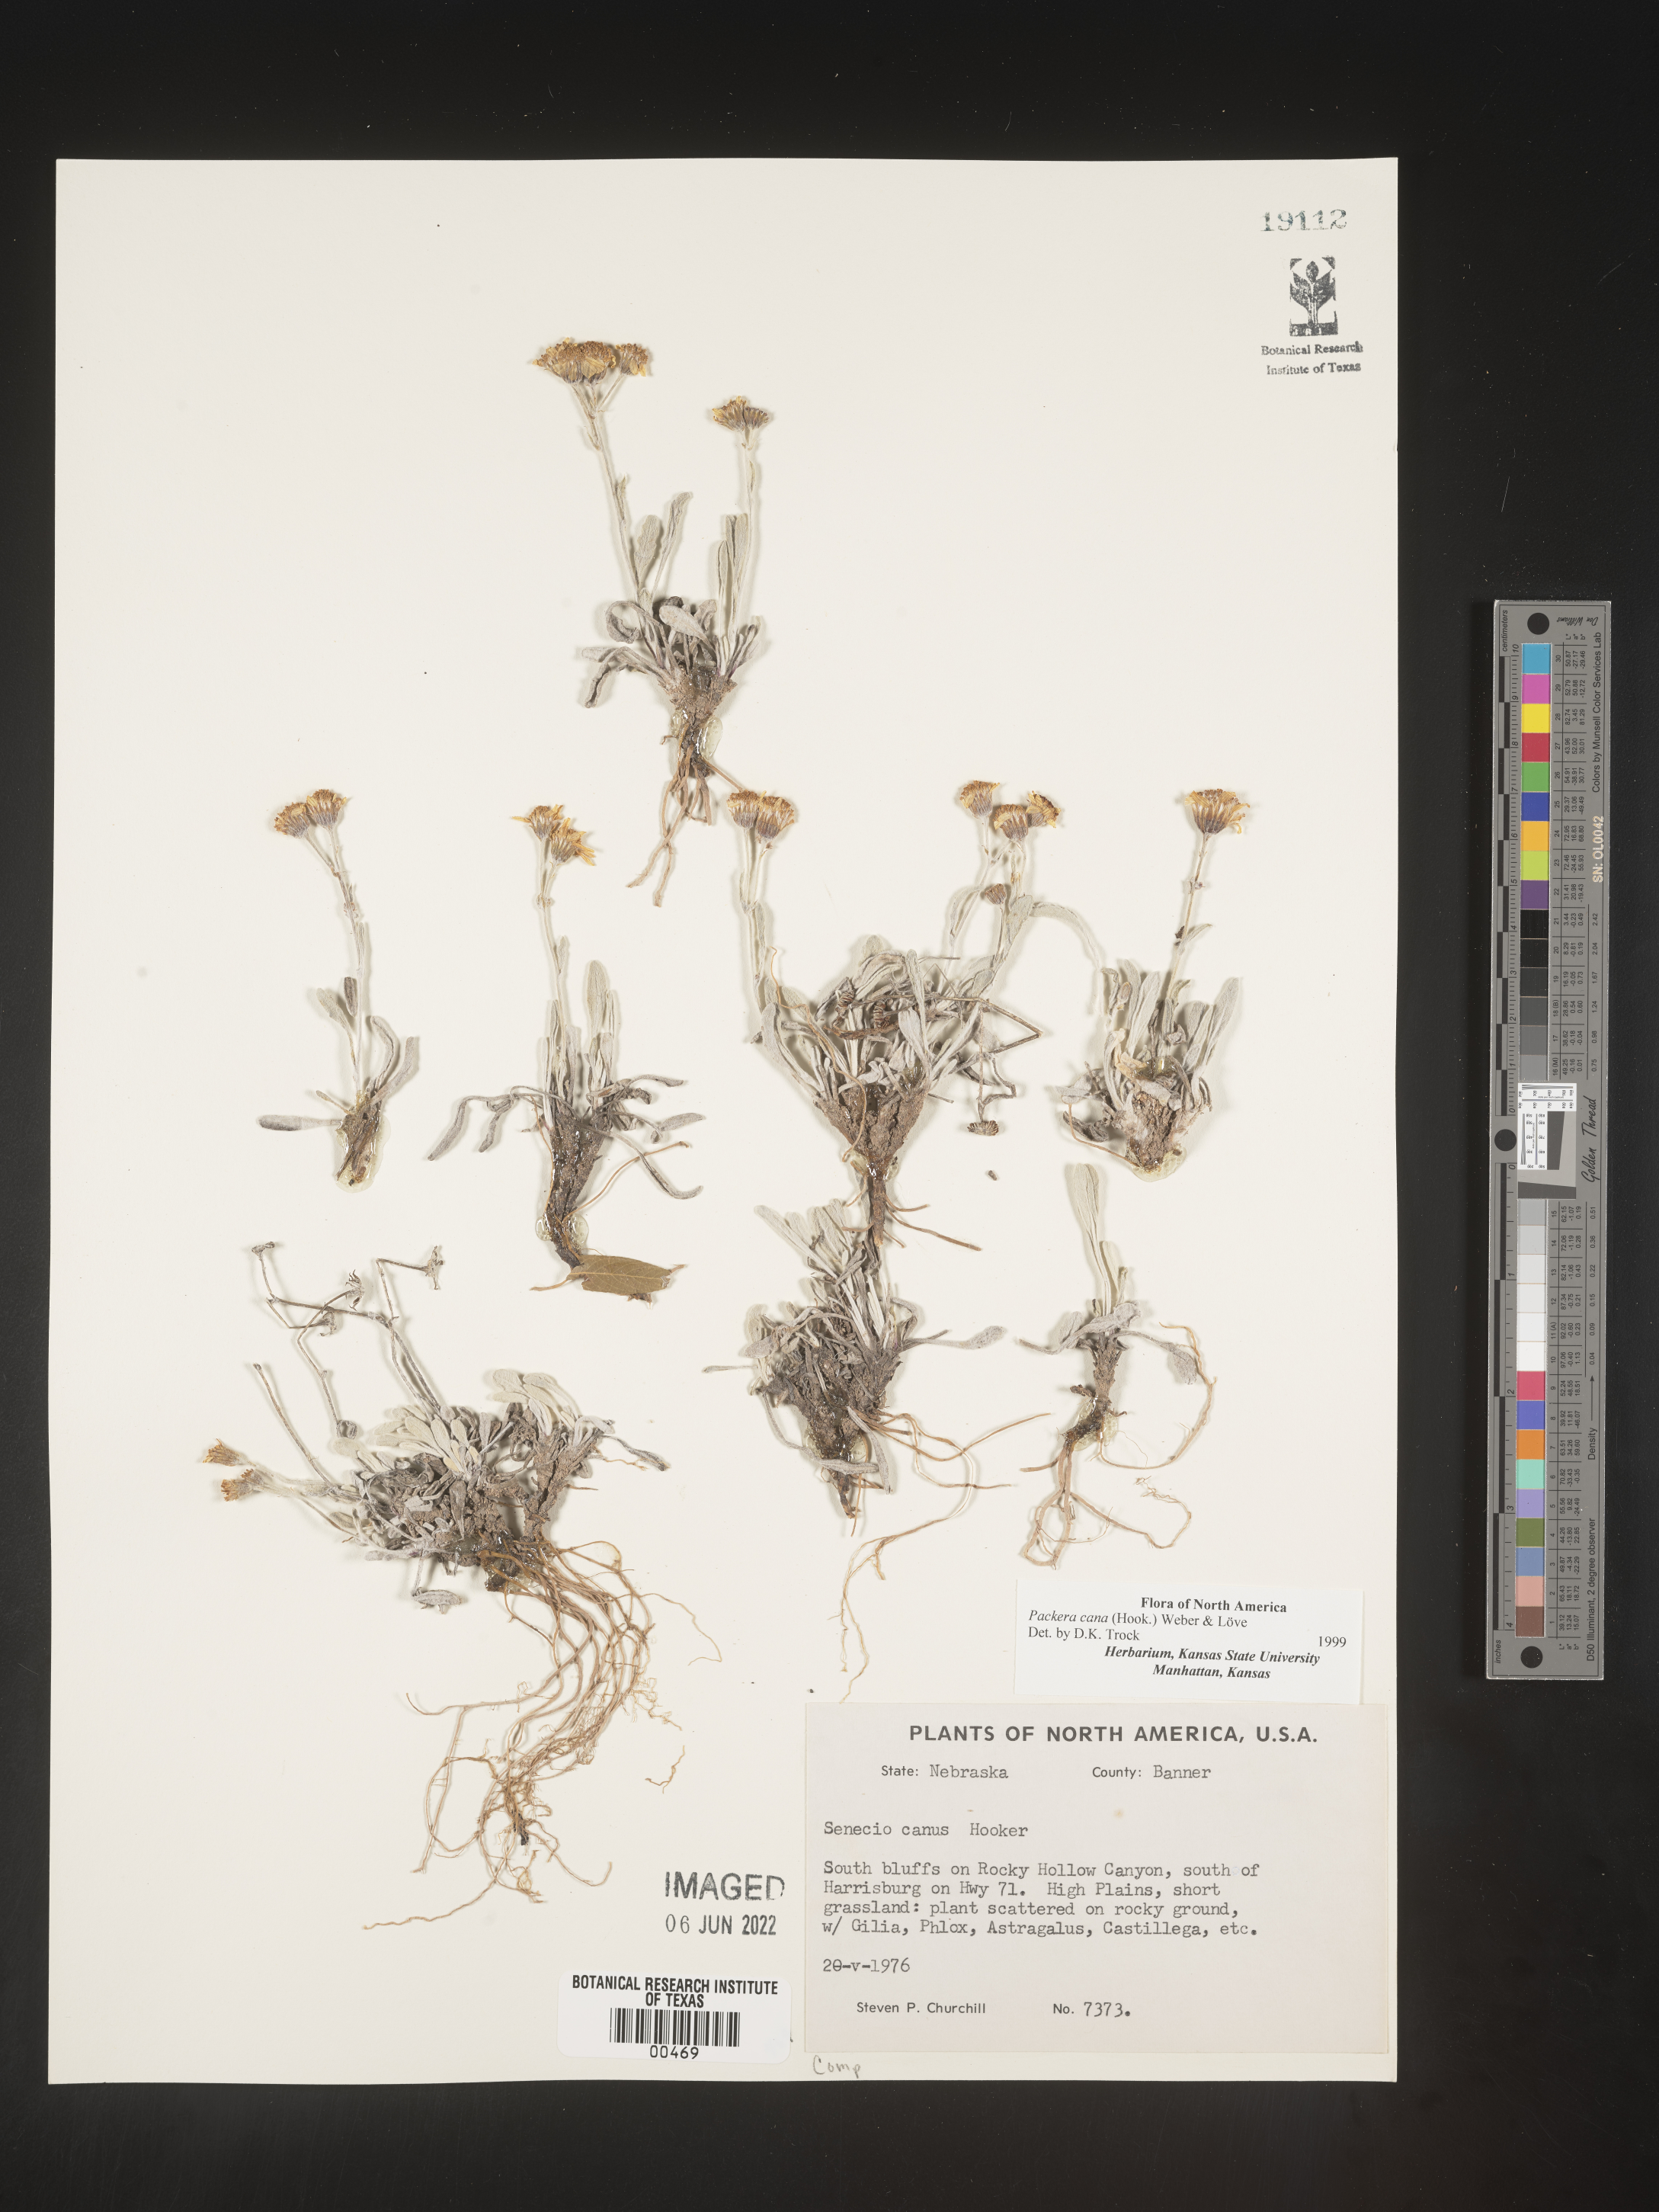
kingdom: Plantae
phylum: Tracheophyta
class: Magnoliopsida
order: Asterales
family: Asteraceae
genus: Packera
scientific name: Packera cana
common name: Woolly groundsel
